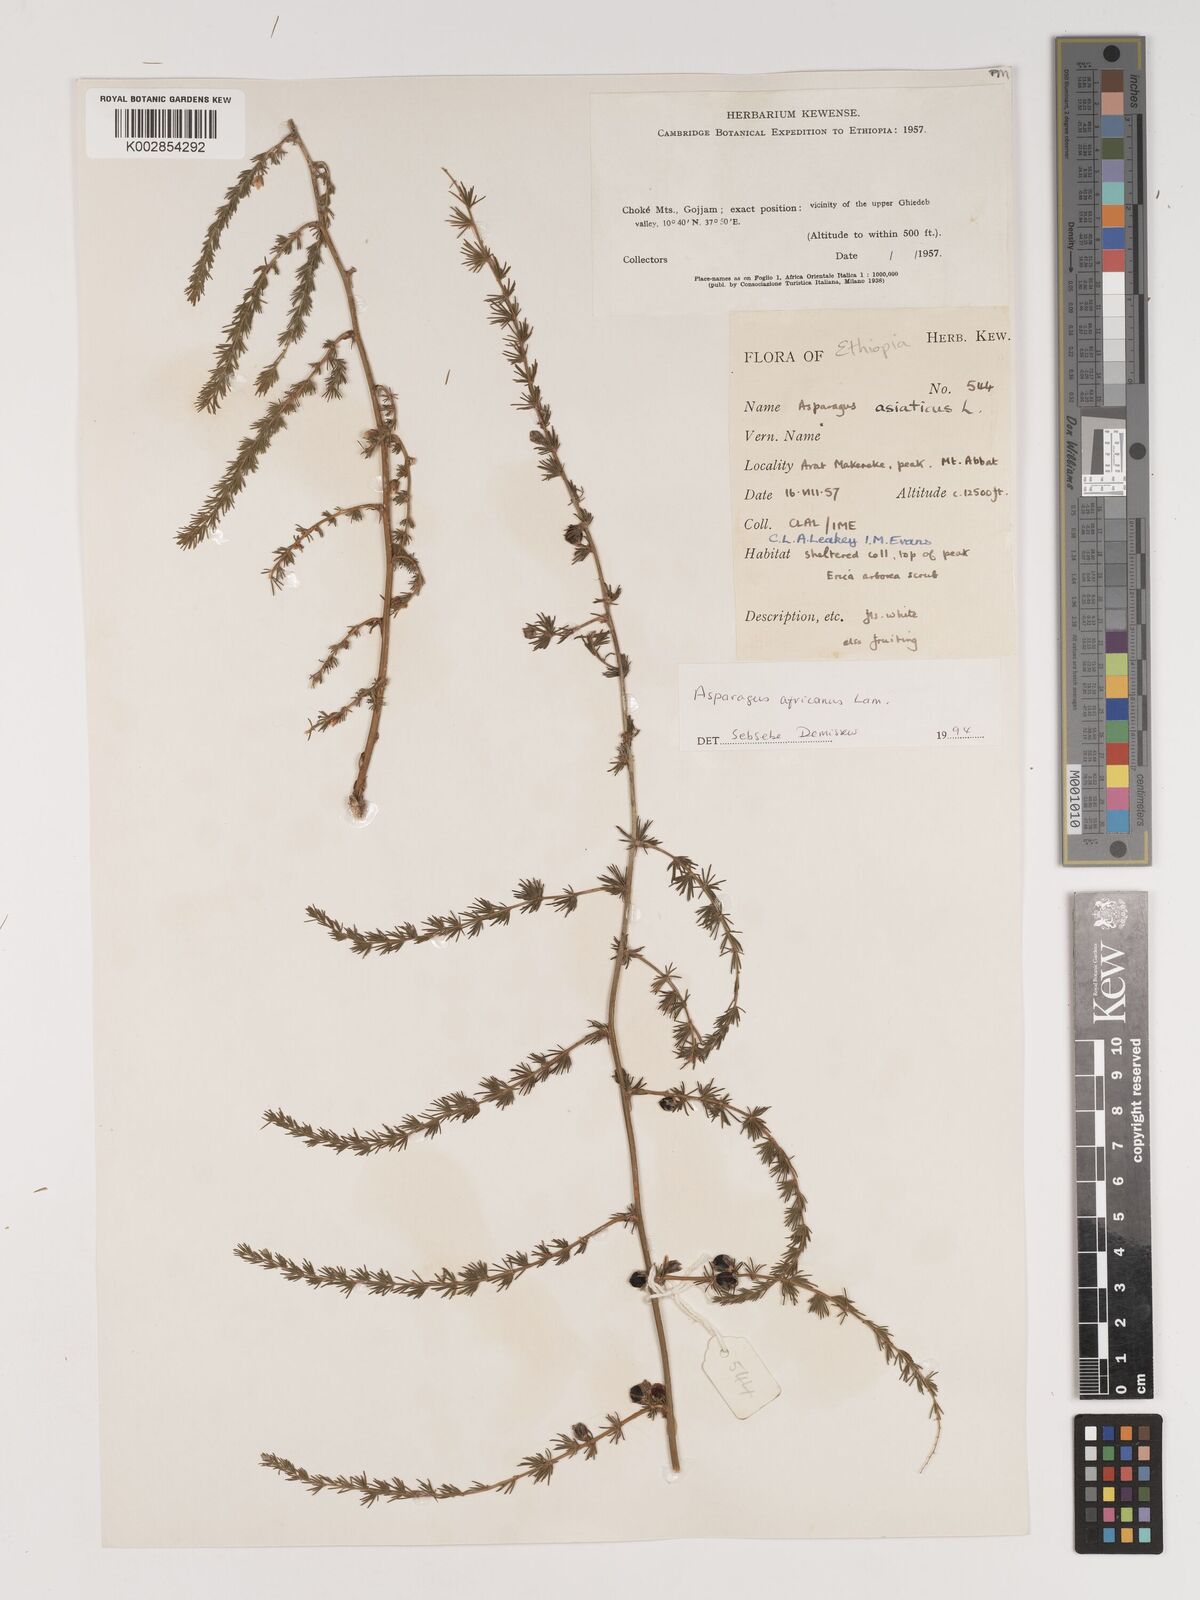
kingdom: Plantae
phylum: Tracheophyta
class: Liliopsida
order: Asparagales
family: Asparagaceae
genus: Asparagus
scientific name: Asparagus africanus
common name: Asparagus-fern
